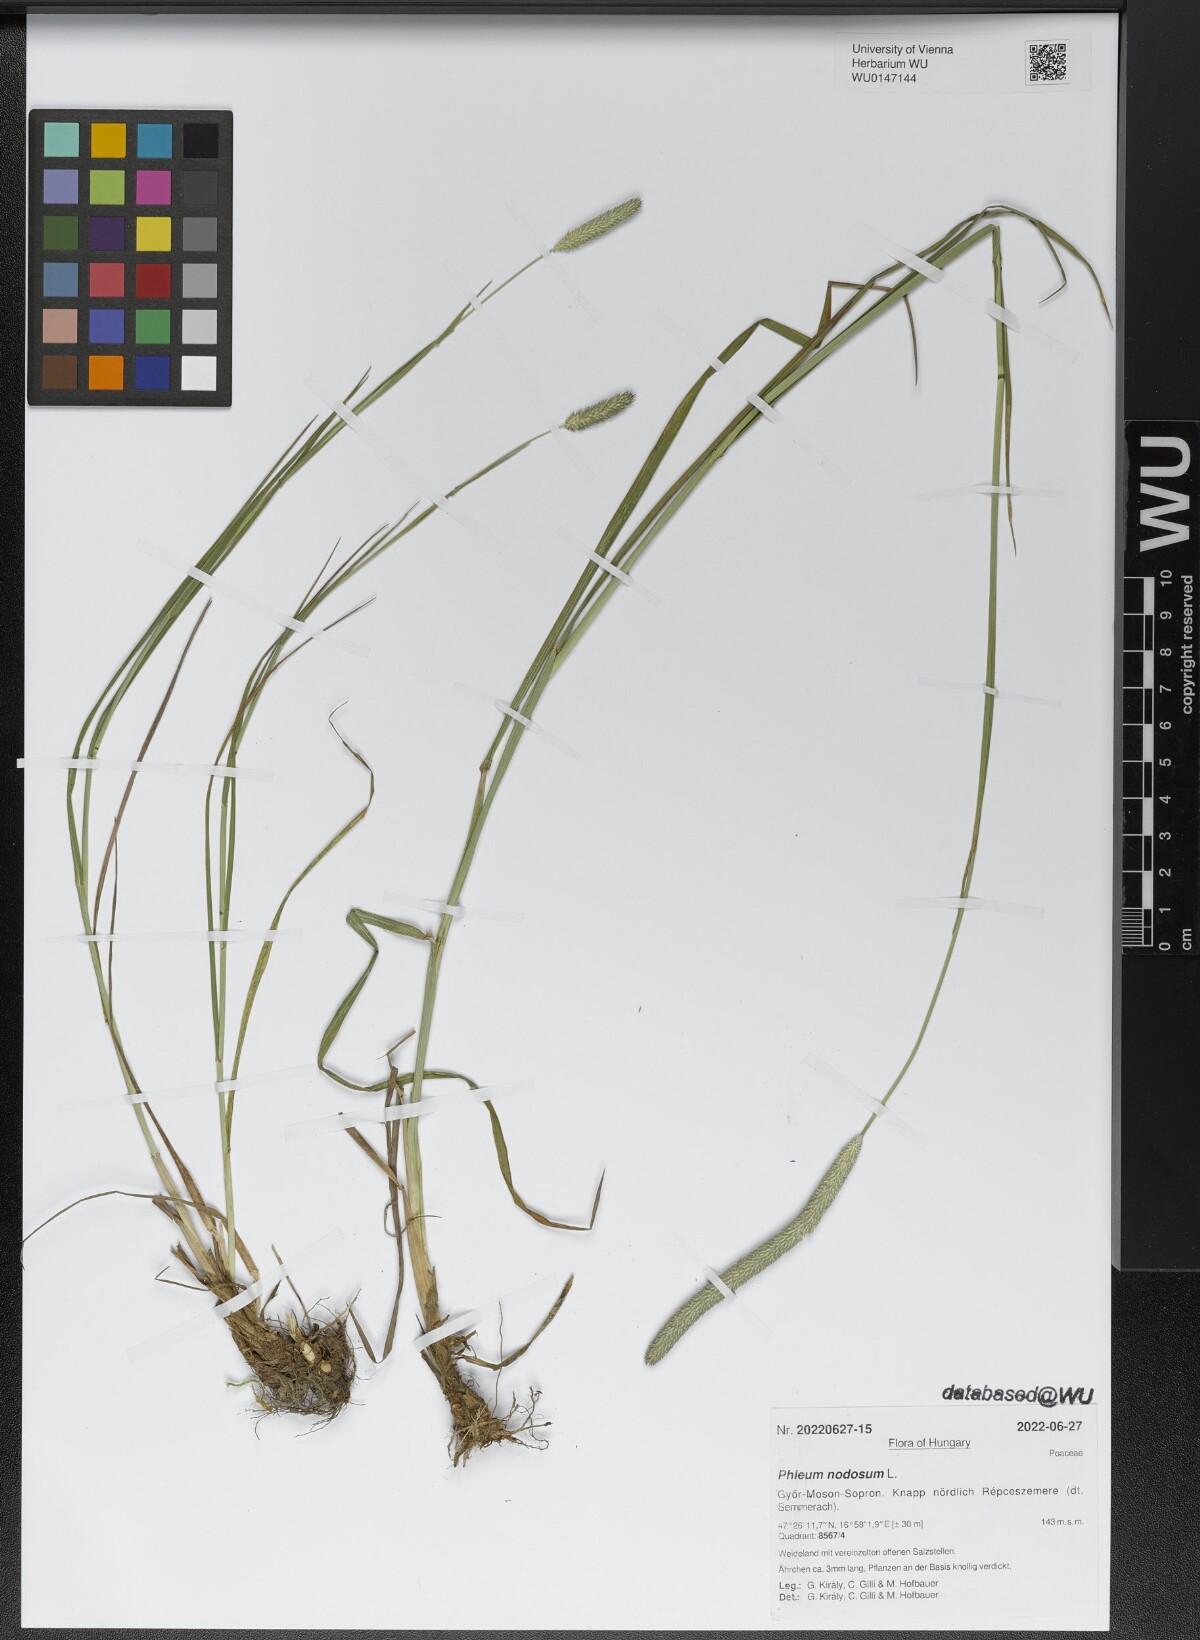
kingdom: Plantae
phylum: Tracheophyta
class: Liliopsida
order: Poales
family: Poaceae
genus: Phleum
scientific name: Phleum pratense
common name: Timothy grass
